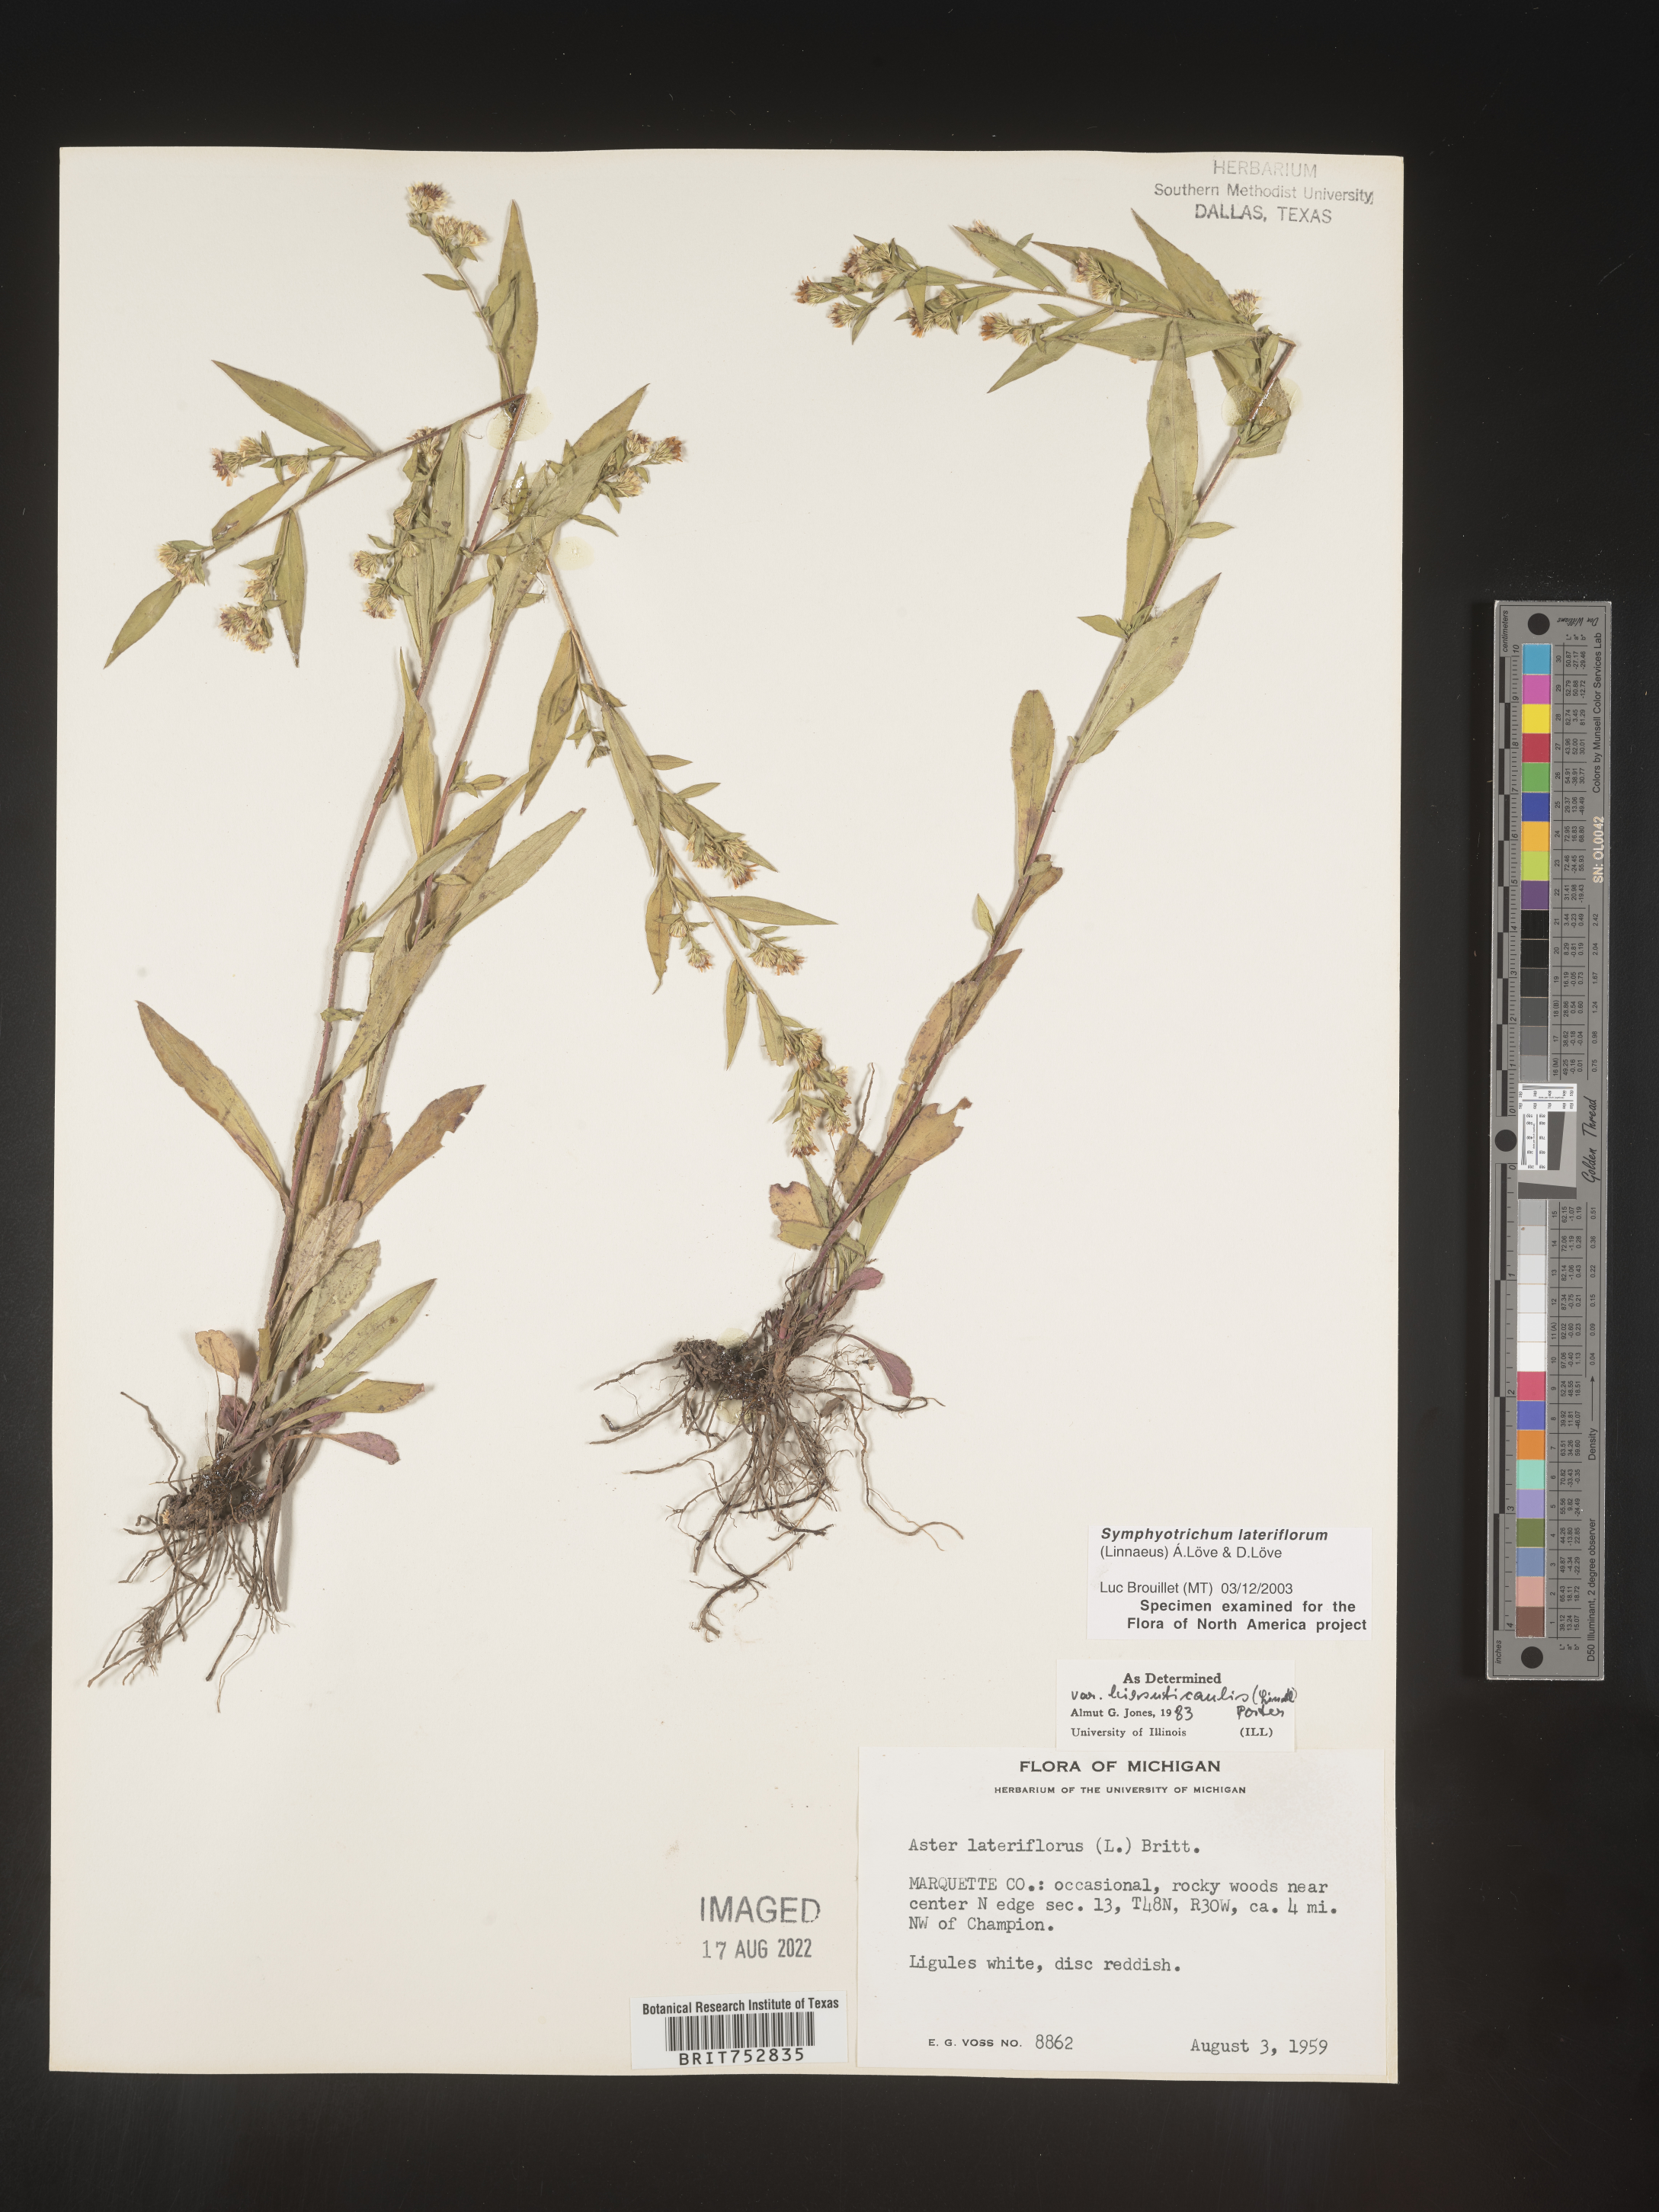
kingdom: Plantae
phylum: Tracheophyta
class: Magnoliopsida
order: Asterales
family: Asteraceae
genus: Symphyotrichum
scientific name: Symphyotrichum lateriflorum
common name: Calico aster
